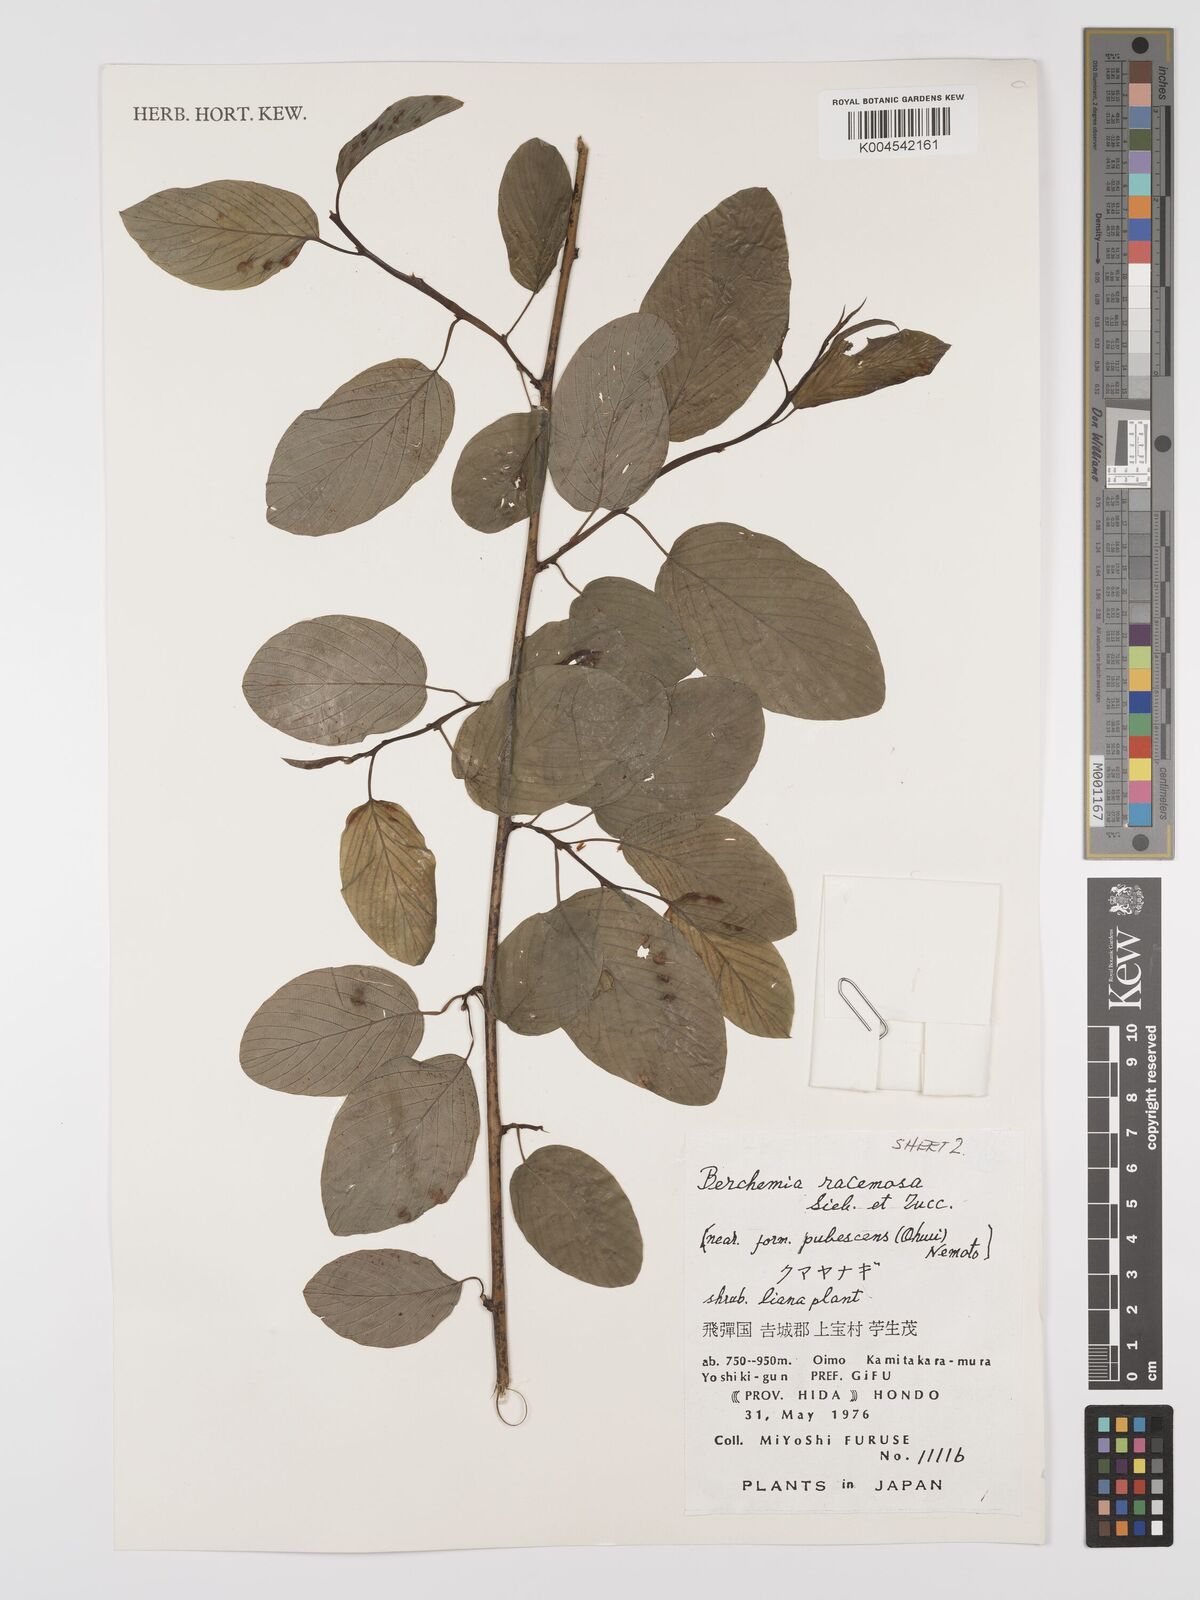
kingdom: Plantae
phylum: Tracheophyta
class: Magnoliopsida
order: Rosales
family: Rhamnaceae
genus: Berchemia
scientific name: Berchemia floribunda
